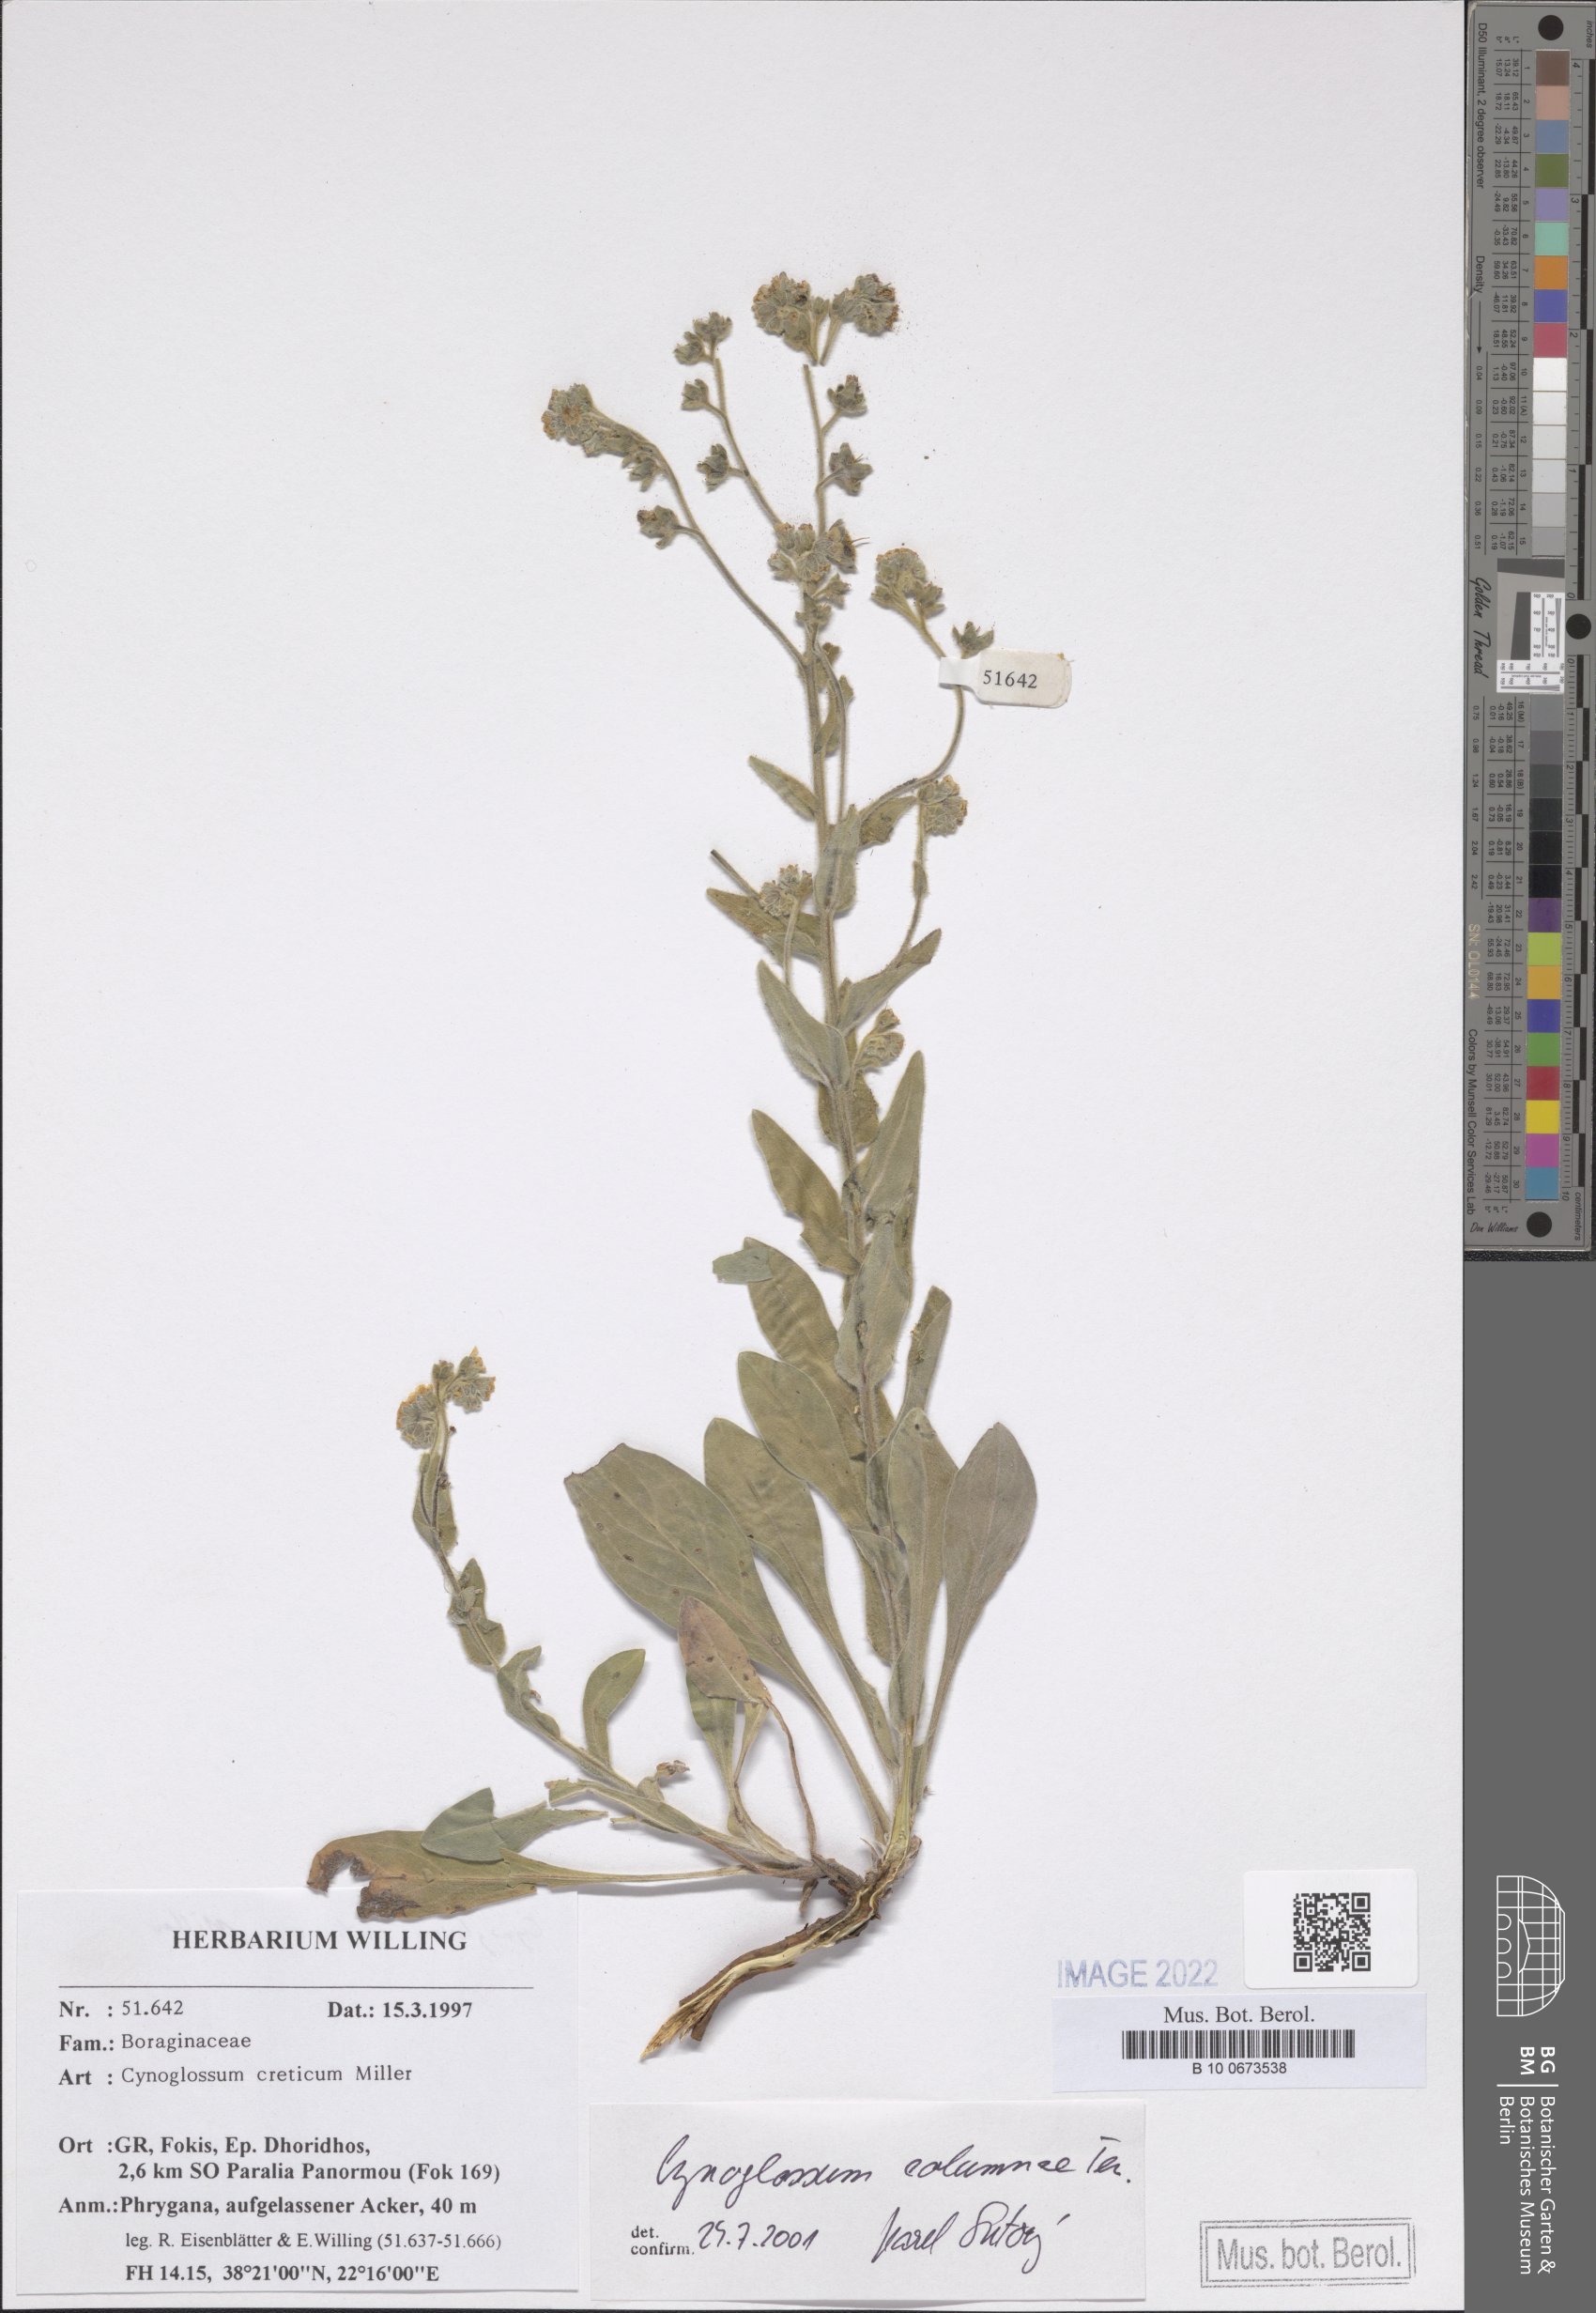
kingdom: Plantae
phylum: Tracheophyta
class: Magnoliopsida
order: Boraginales
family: Boraginaceae
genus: Rindera
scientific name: Rindera columnae
